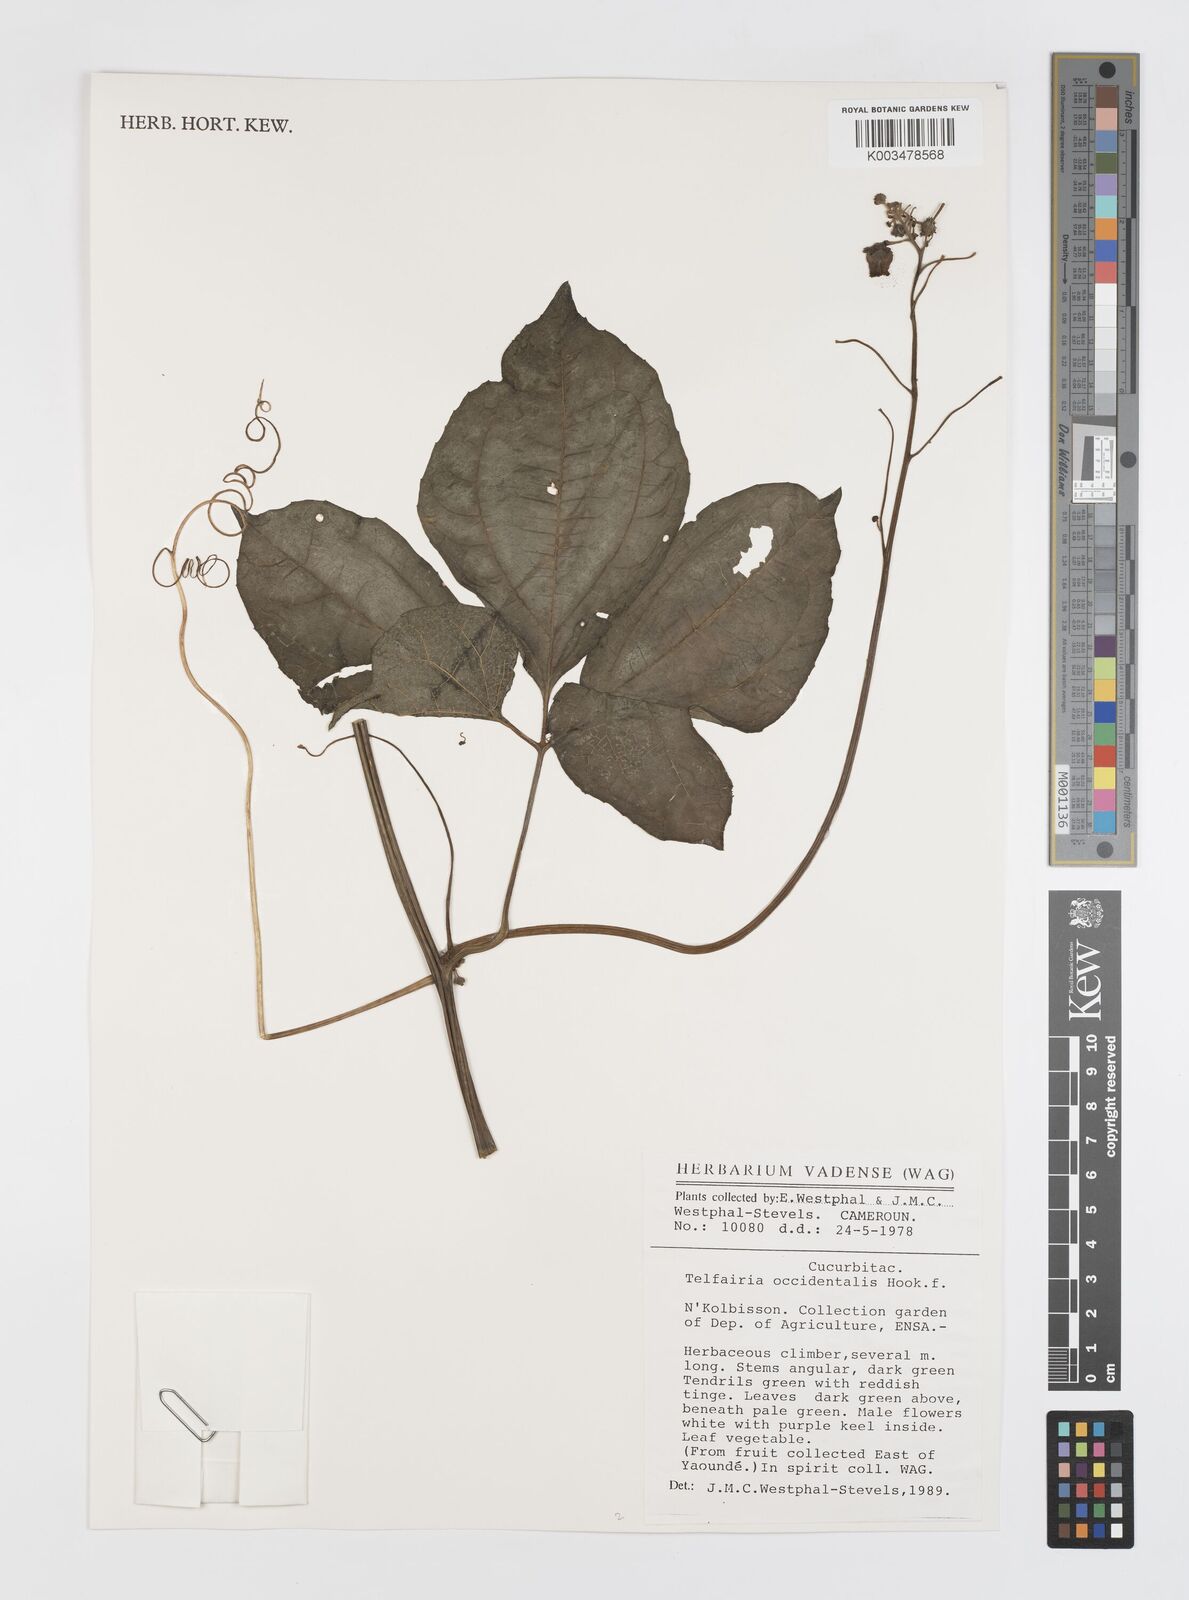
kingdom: Plantae
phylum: Tracheophyta
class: Magnoliopsida
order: Cucurbitales
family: Cucurbitaceae
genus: Telfairia
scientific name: Telfairia occidentalis
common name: Oysternut
